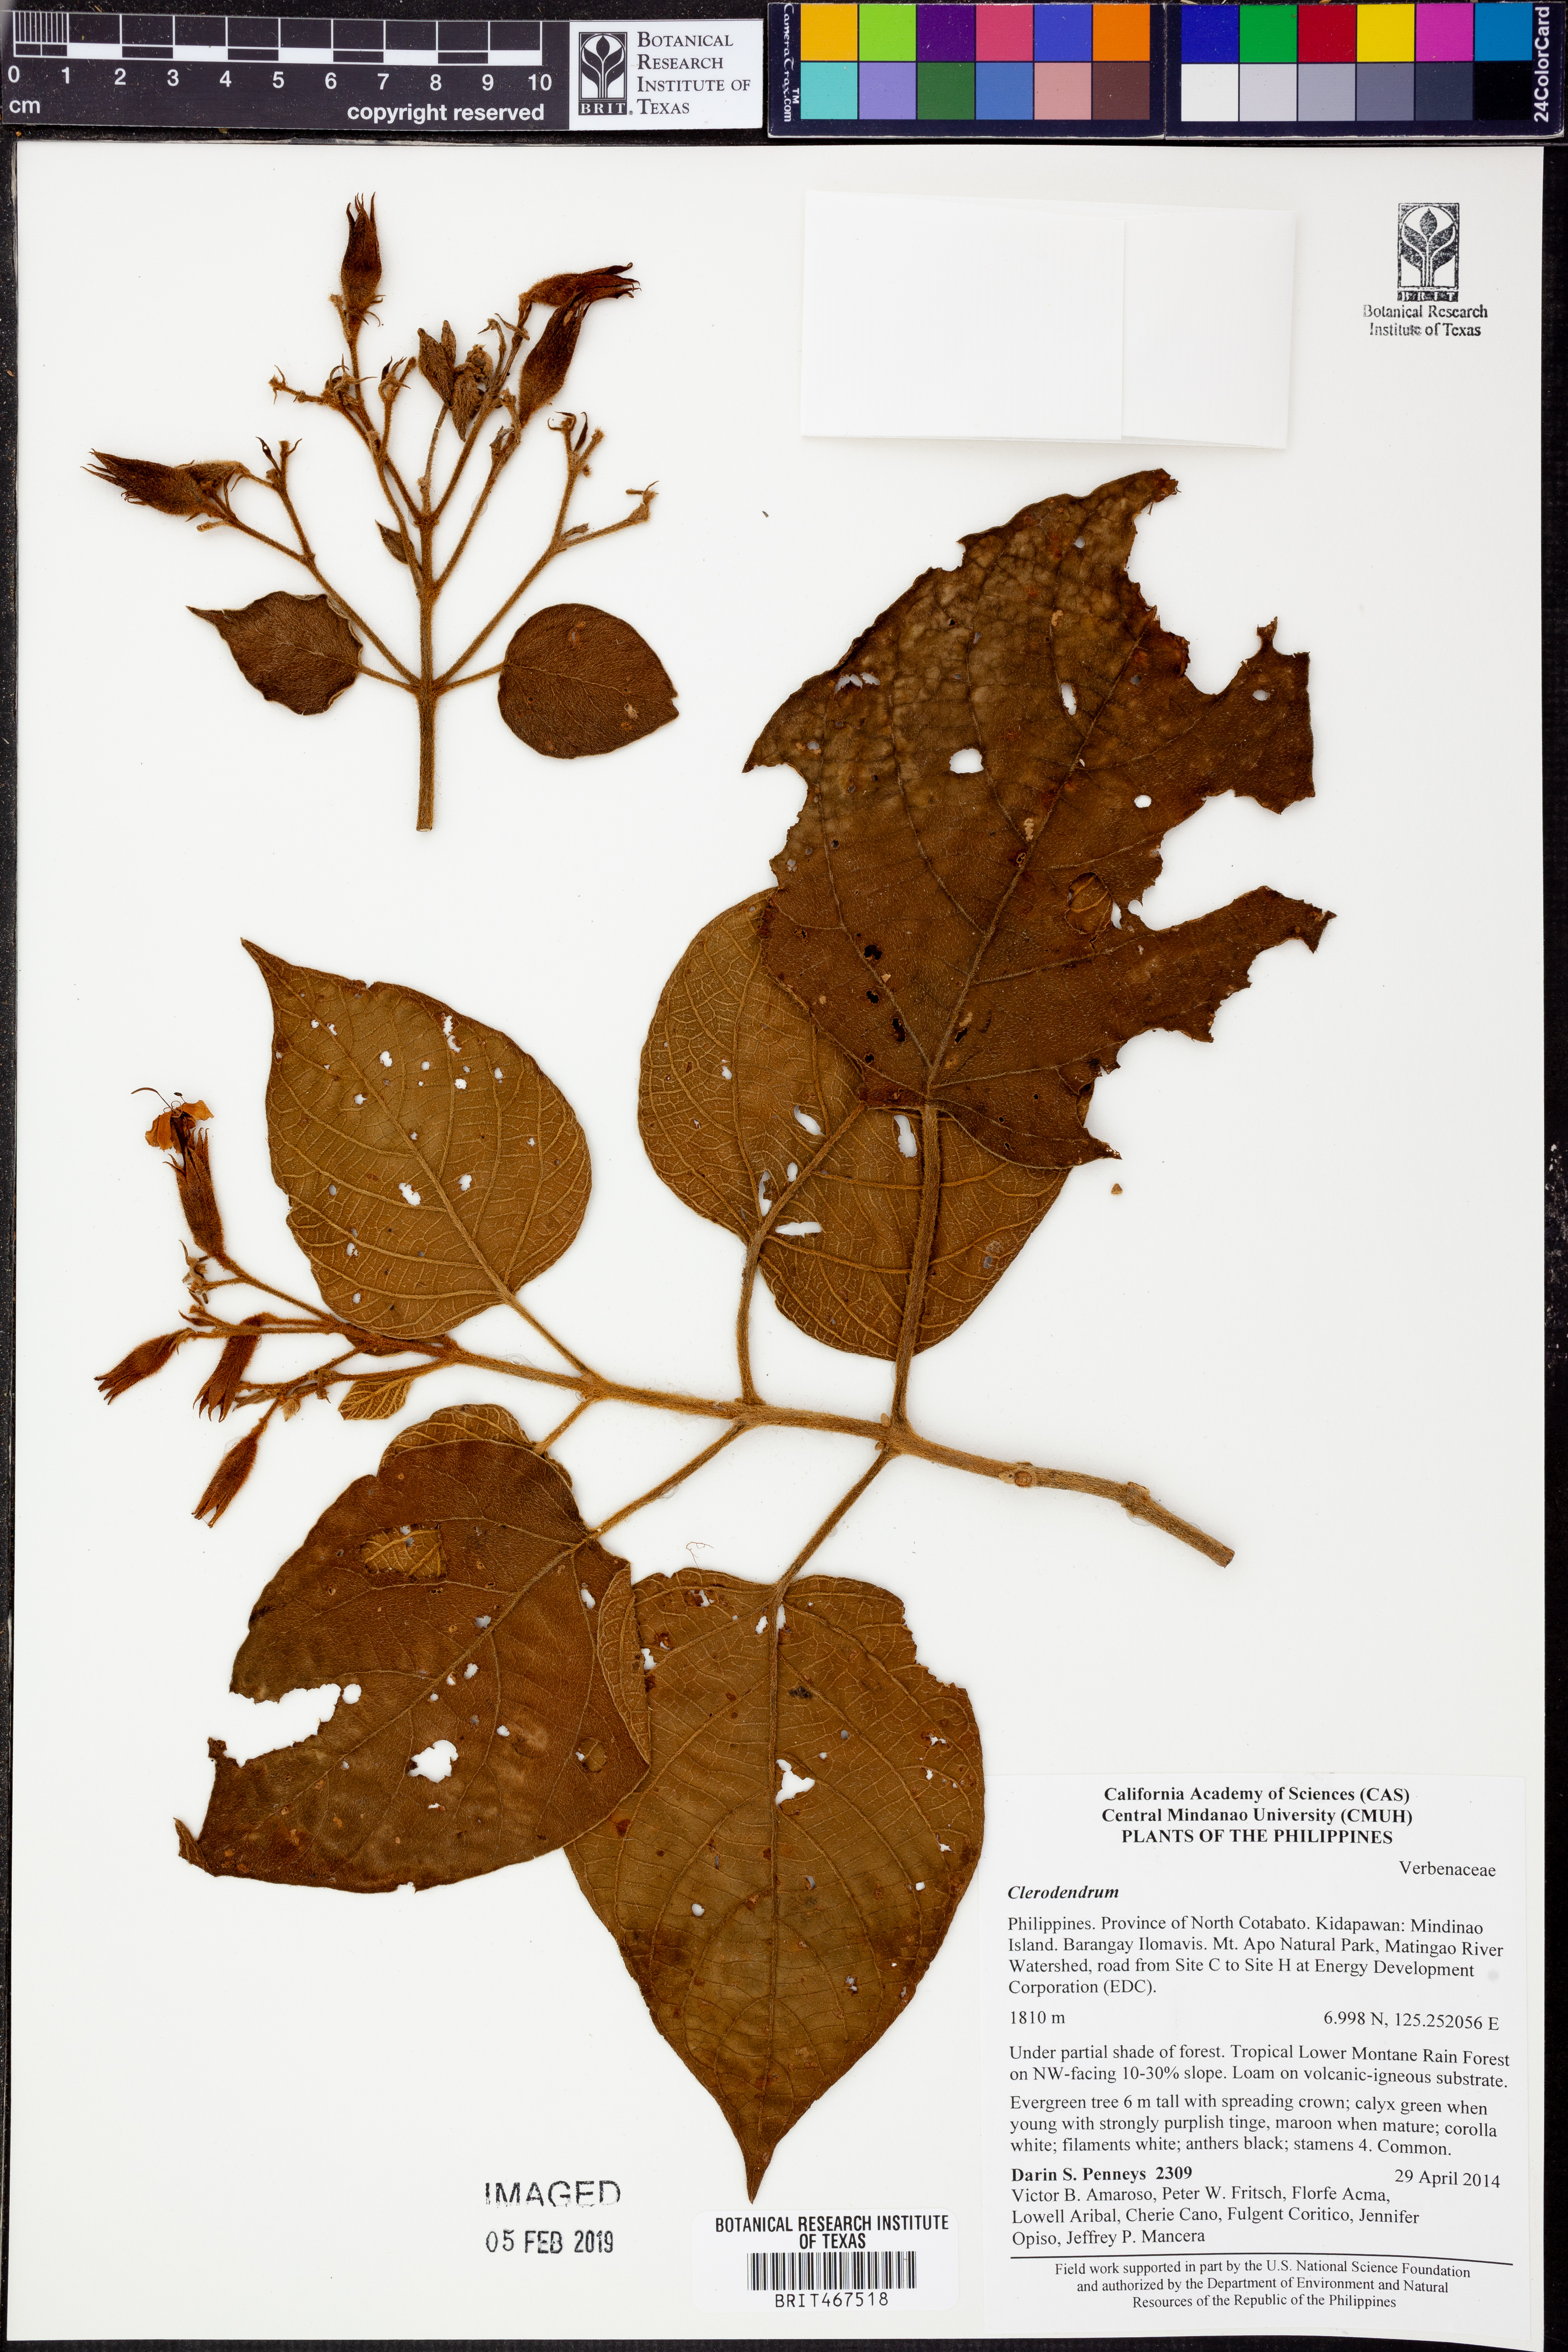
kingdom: Plantae
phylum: Tracheophyta
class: Magnoliopsida
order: Lamiales
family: Lamiaceae
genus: Clerodendrum
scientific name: Clerodendrum
